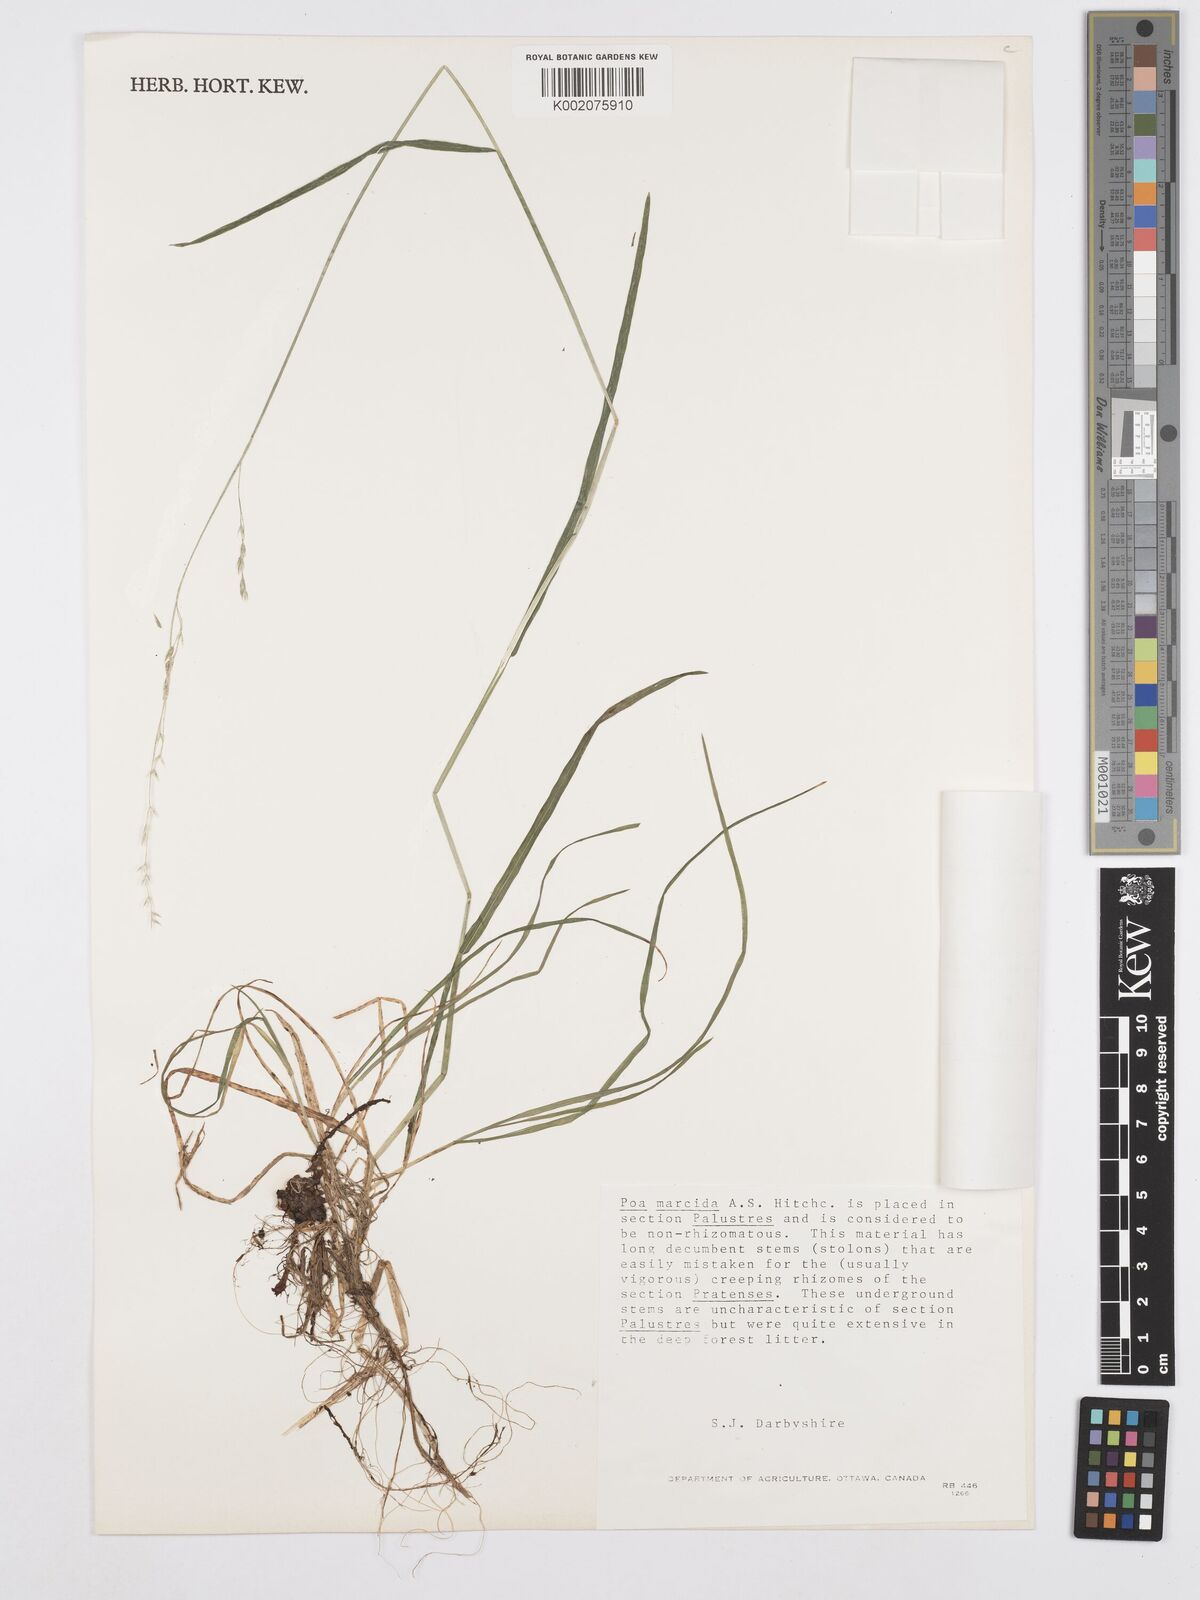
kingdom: Plantae
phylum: Tracheophyta
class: Liliopsida
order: Poales
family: Poaceae
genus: Poa
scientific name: Poa marcida
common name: Weeping bluegrass
